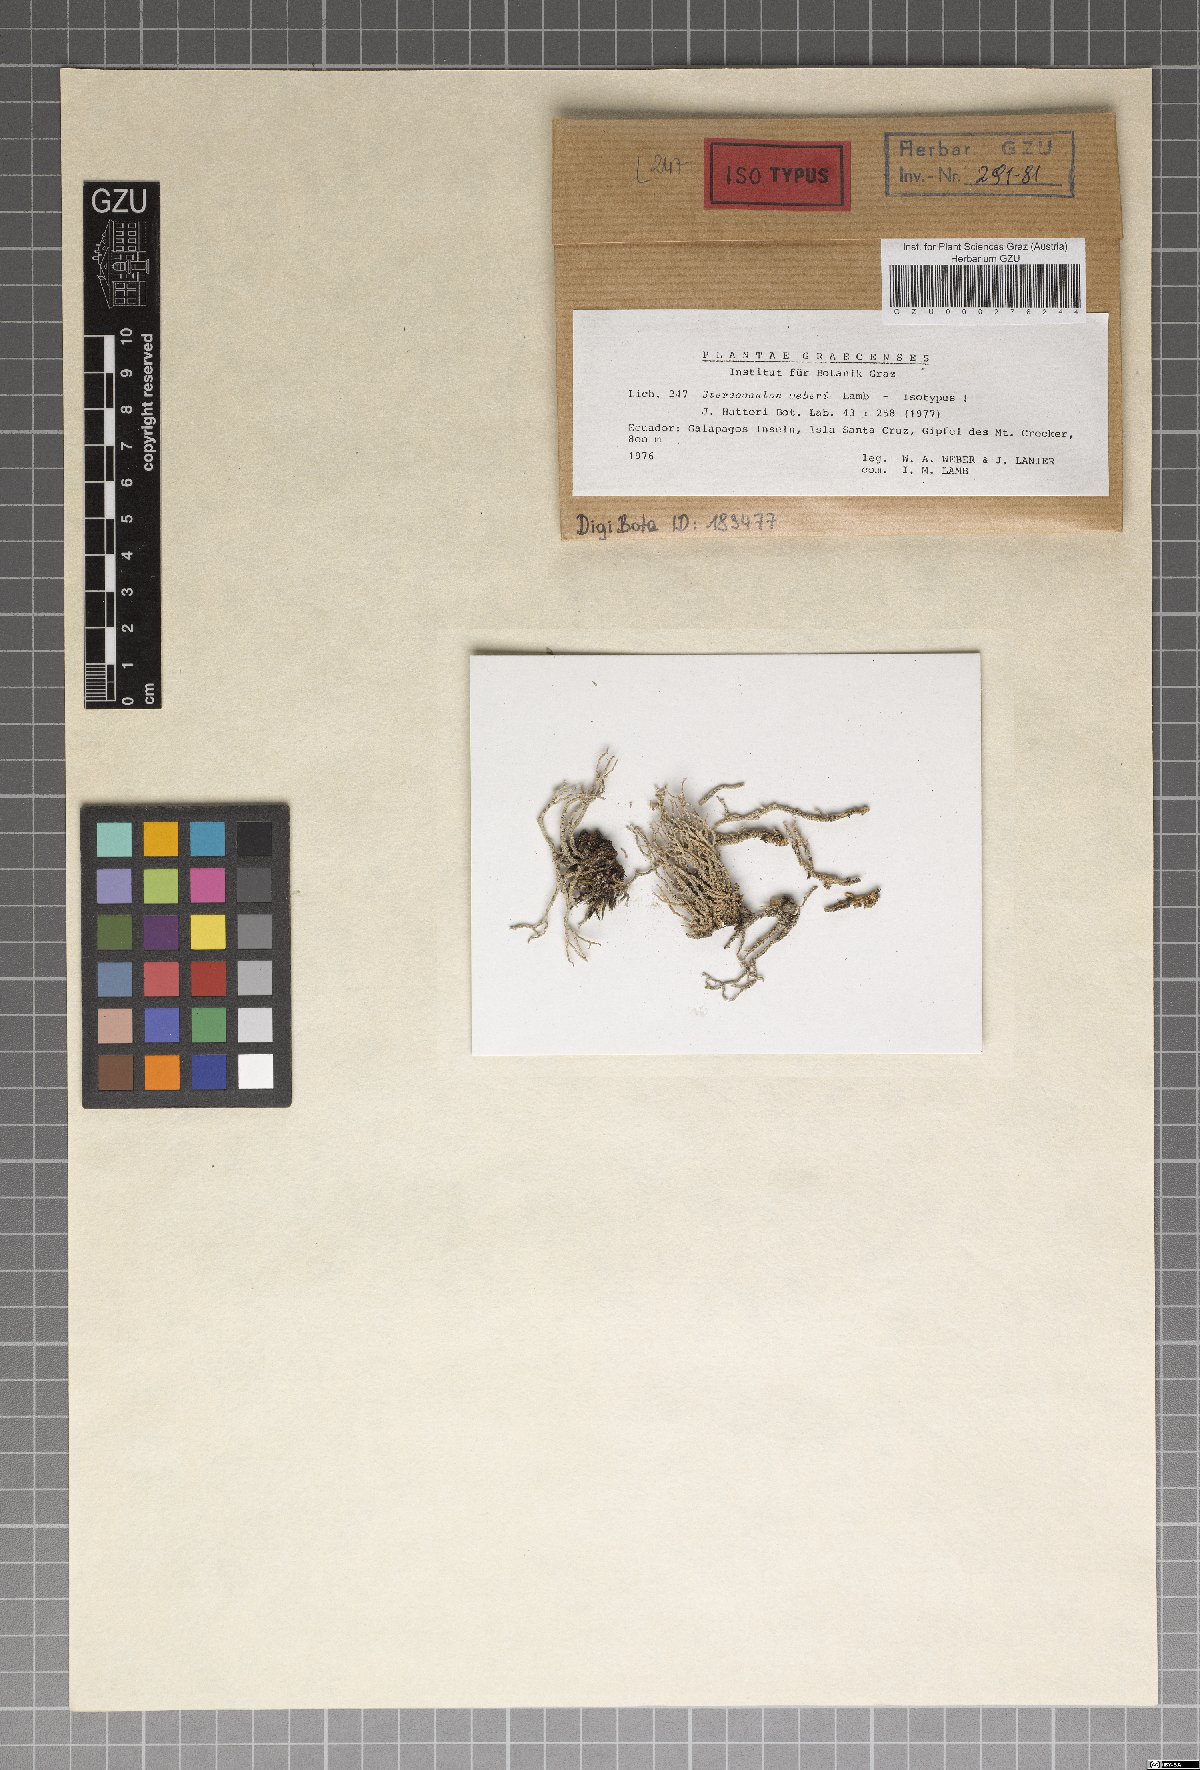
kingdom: Fungi
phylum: Ascomycota
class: Lecanoromycetes
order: Lecanorales
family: Stereocaulaceae
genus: Stereocaulon
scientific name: Stereocaulon weberi
